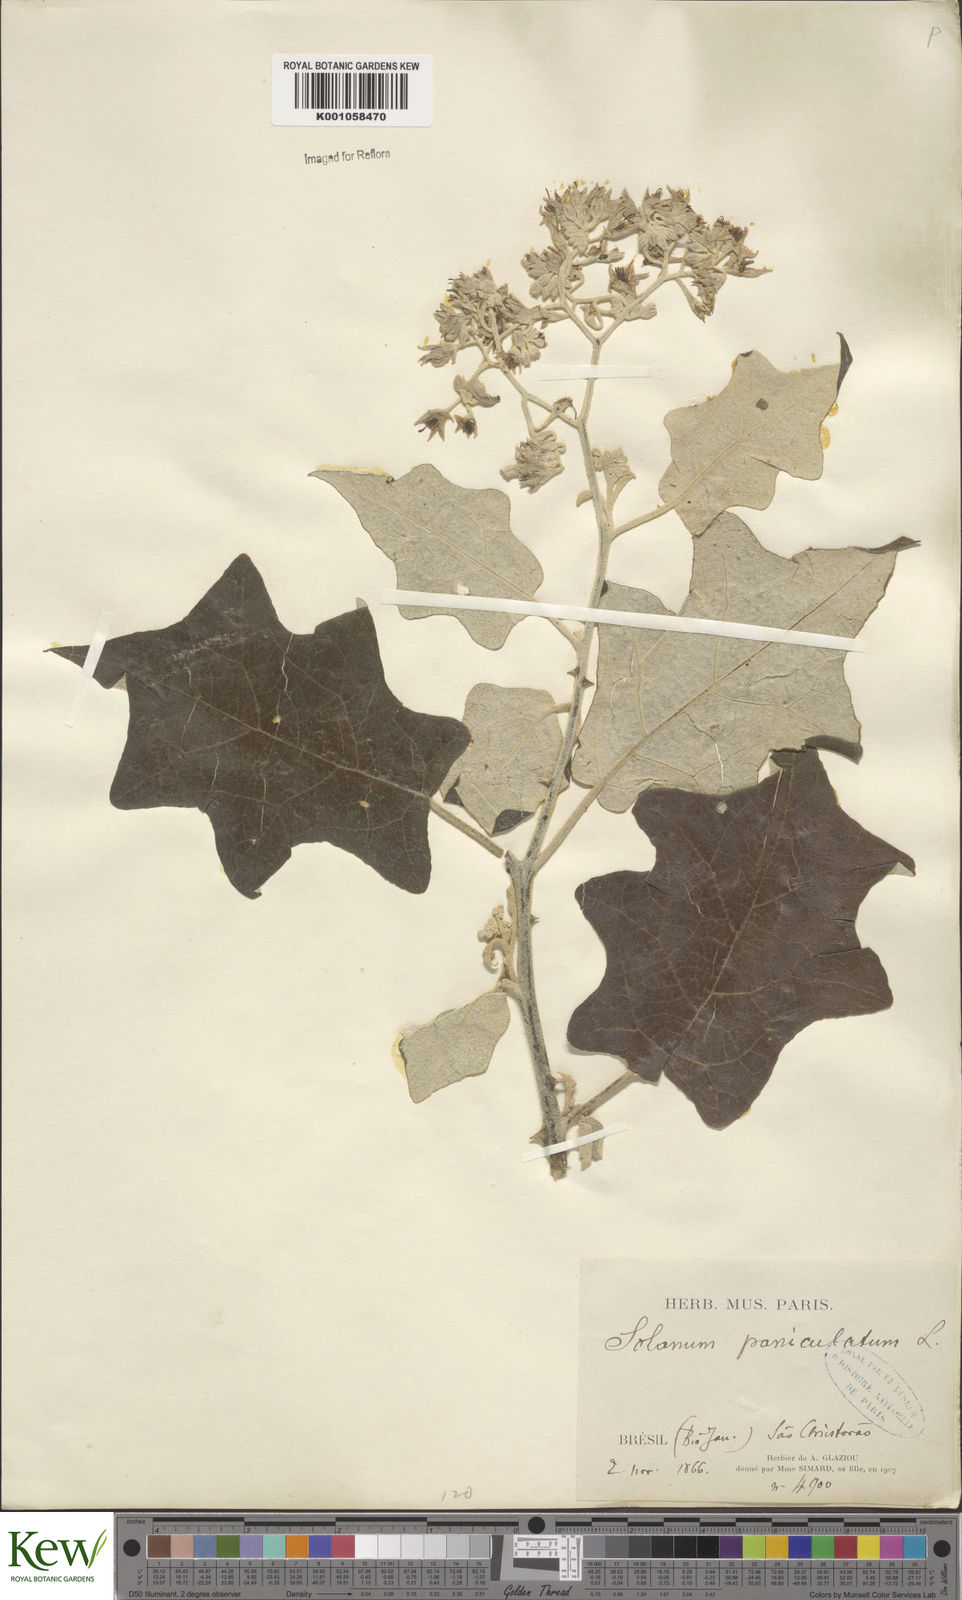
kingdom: Plantae
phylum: Tracheophyta
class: Magnoliopsida
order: Solanales
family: Solanaceae
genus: Solanum
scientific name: Solanum paniculatum
